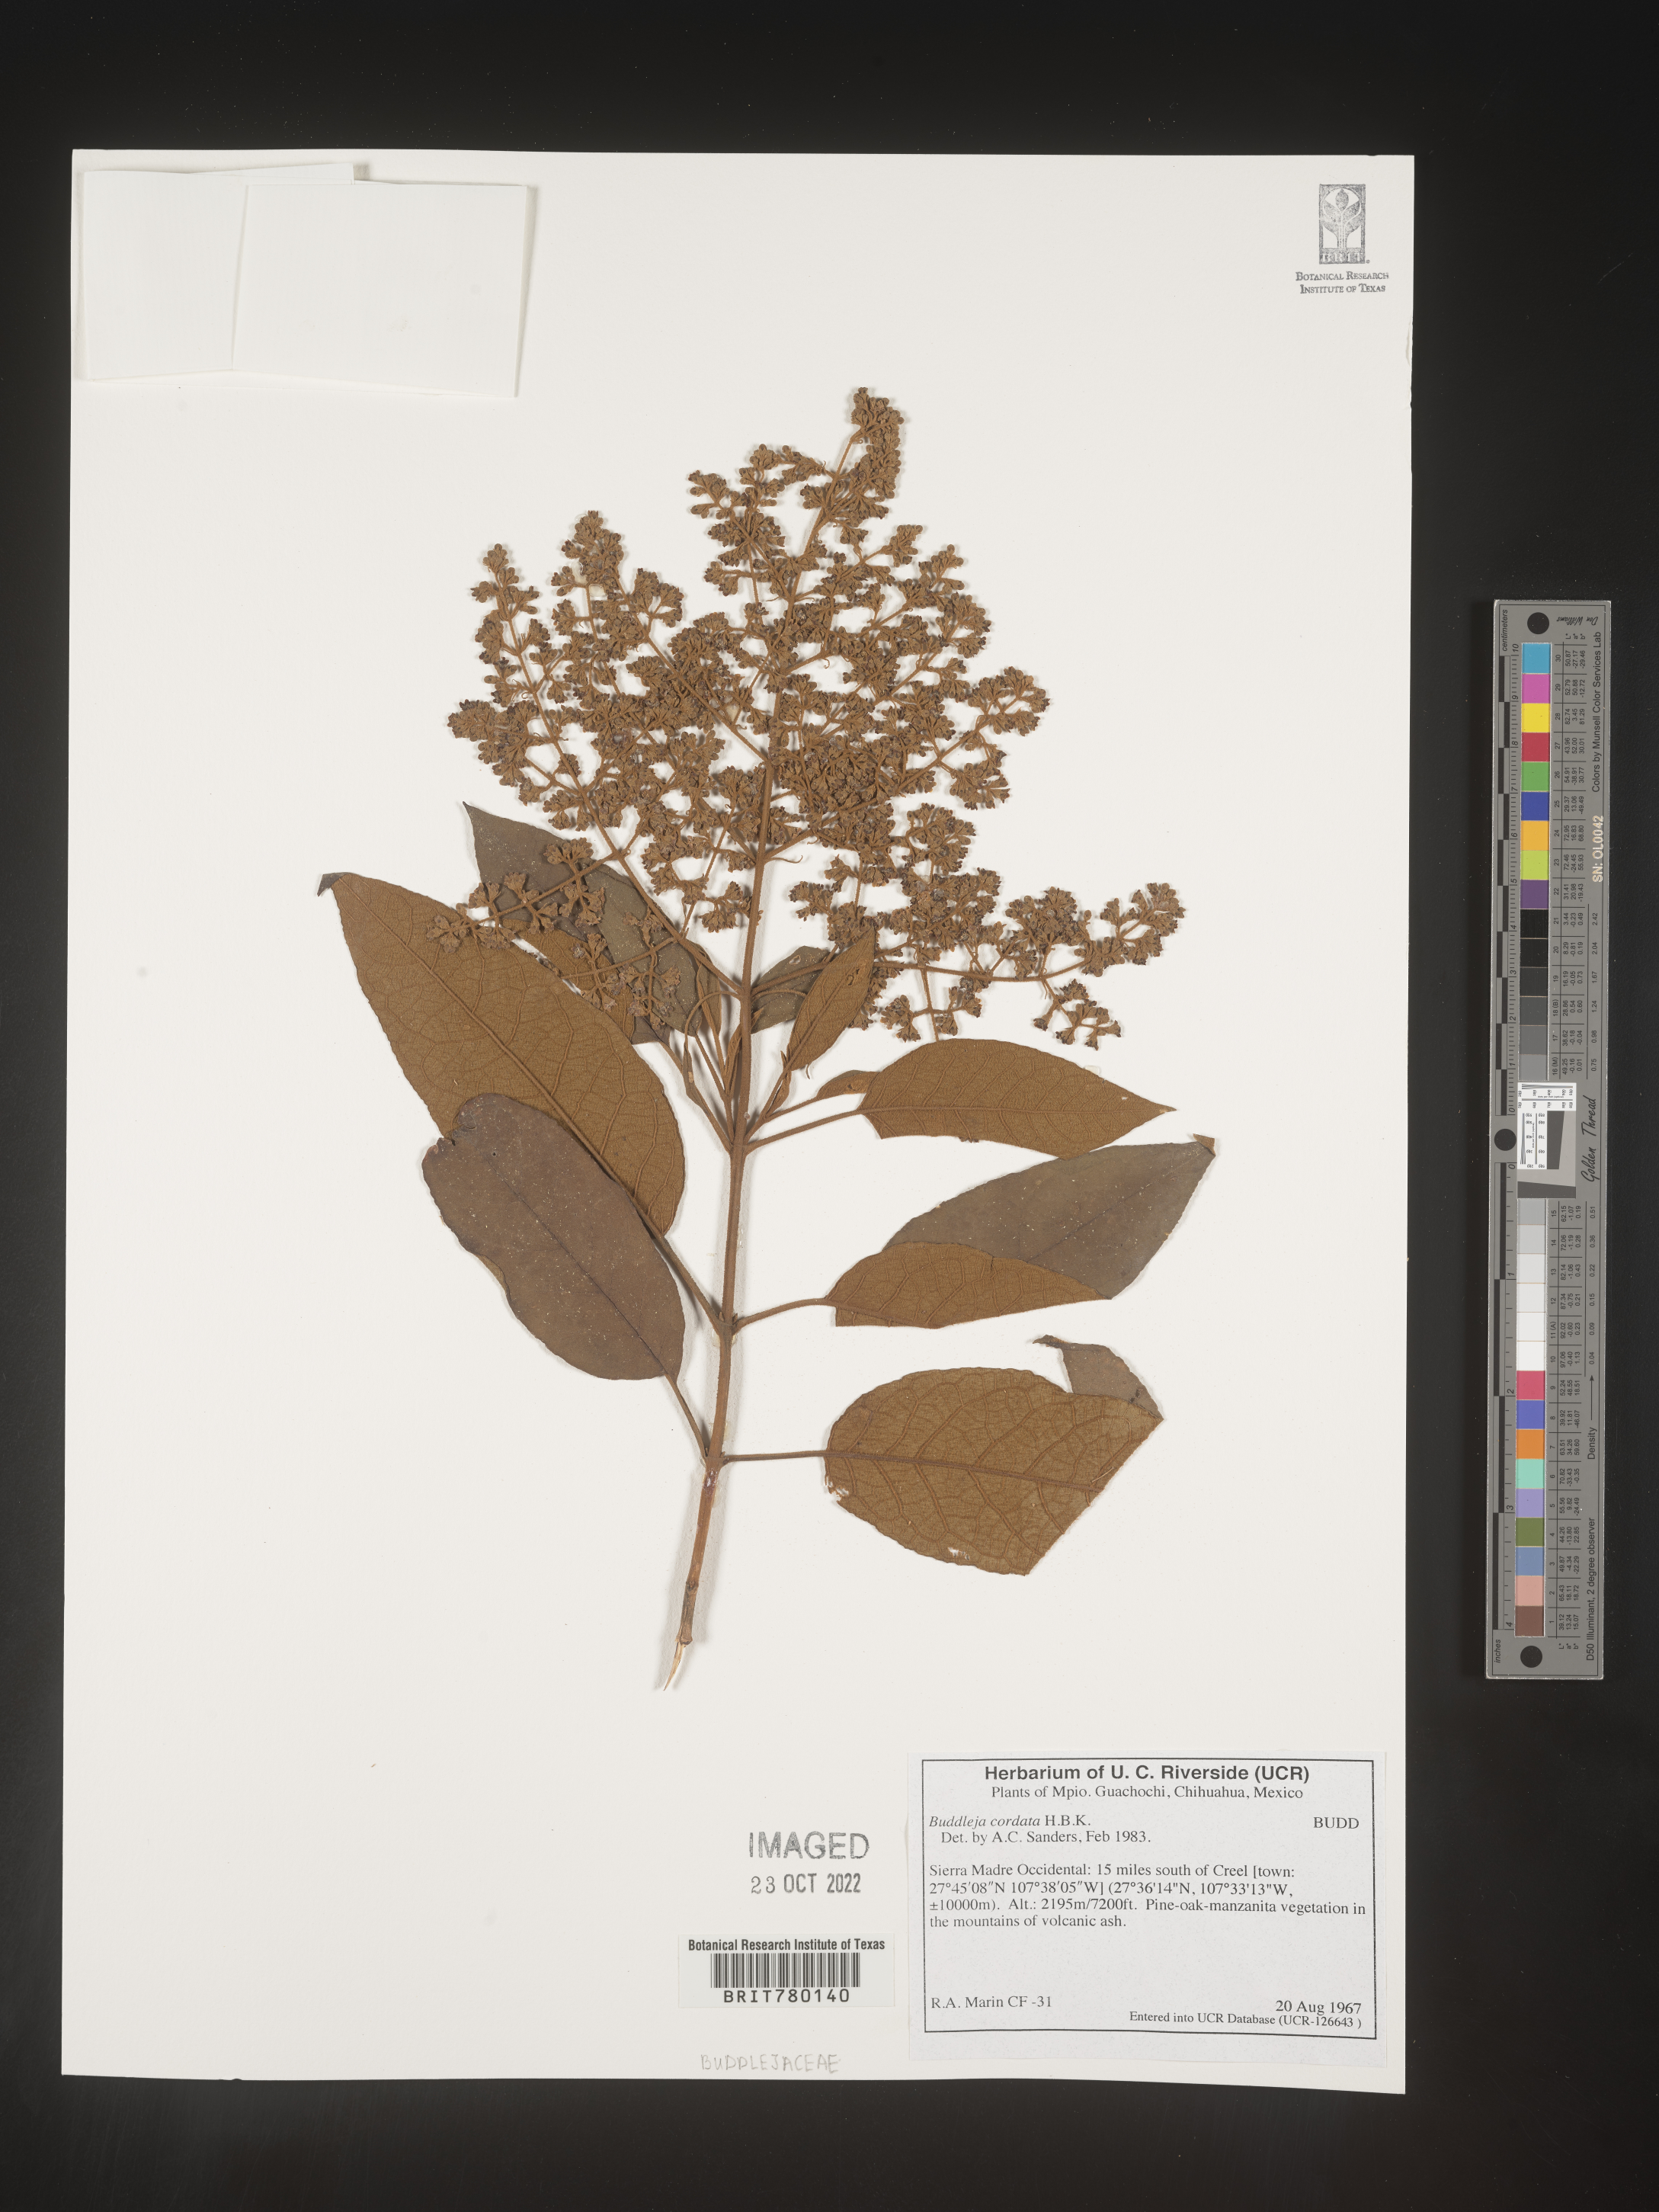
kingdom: Plantae
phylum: Tracheophyta
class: Magnoliopsida
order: Lamiales
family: Scrophulariaceae
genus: Buddleja
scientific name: Buddleja
